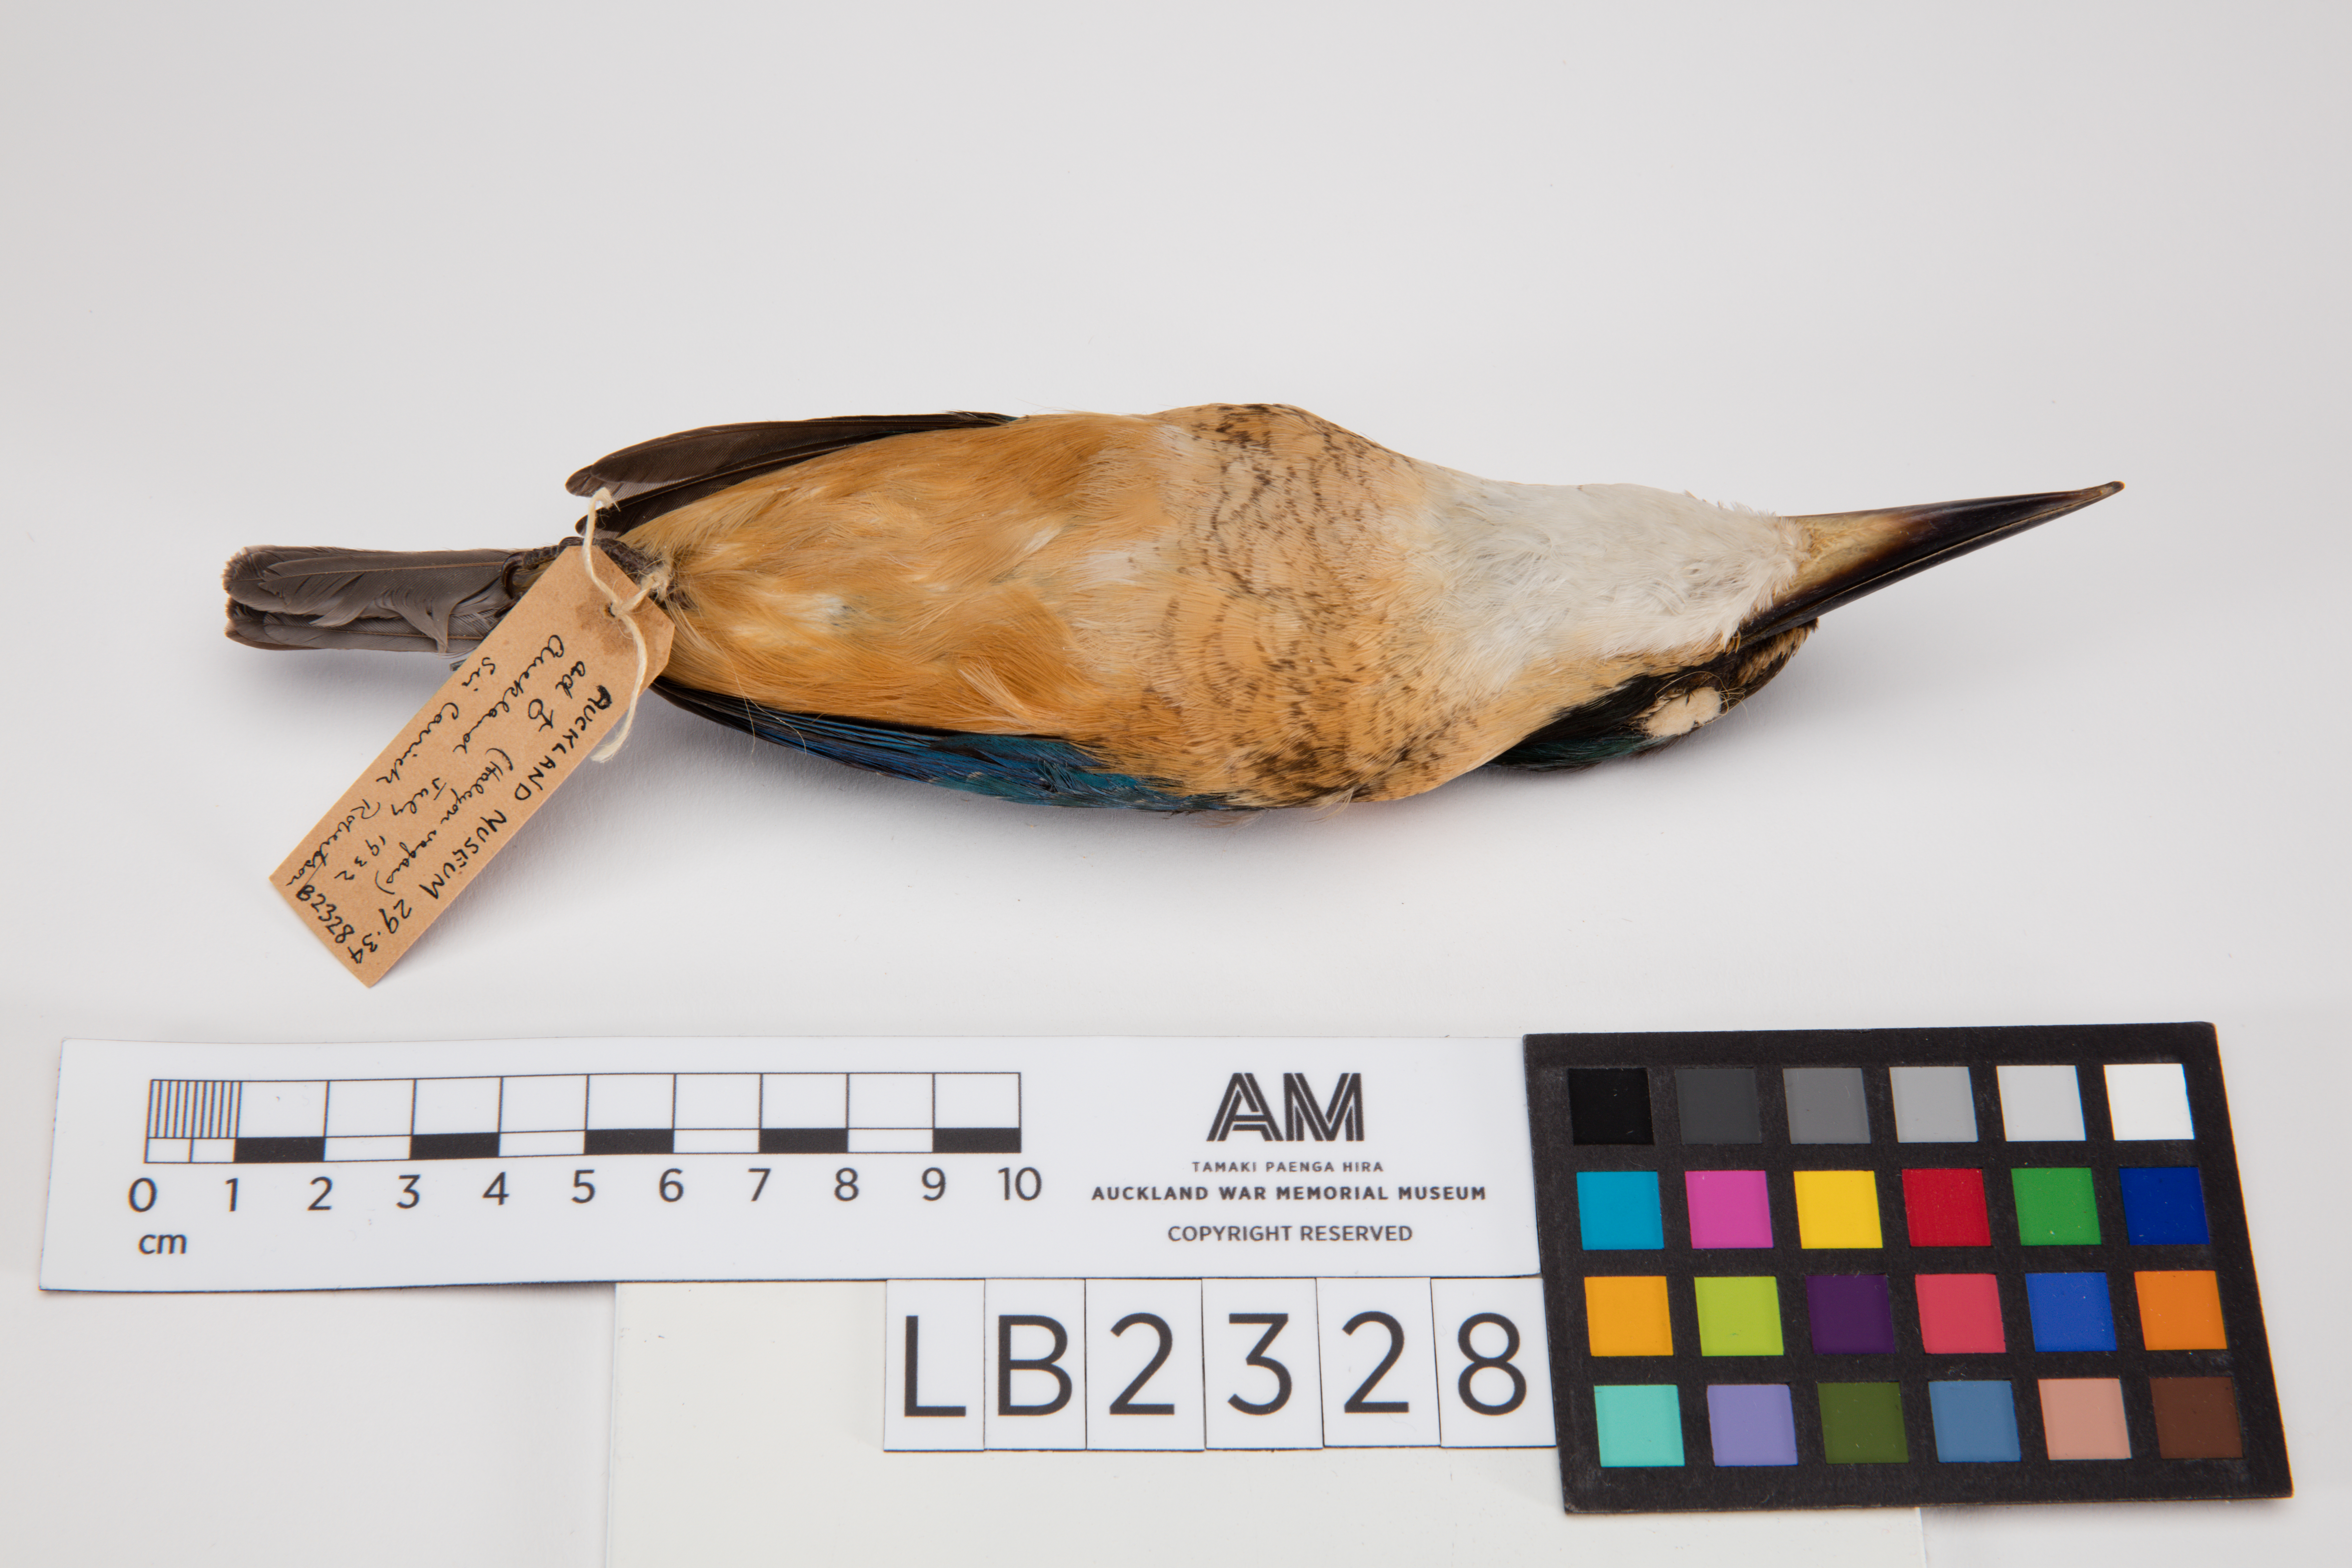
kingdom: Animalia
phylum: Chordata
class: Aves
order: Coraciiformes
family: Alcedinidae
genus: Todiramphus
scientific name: Todiramphus sanctus
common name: Sacred kingfisher
